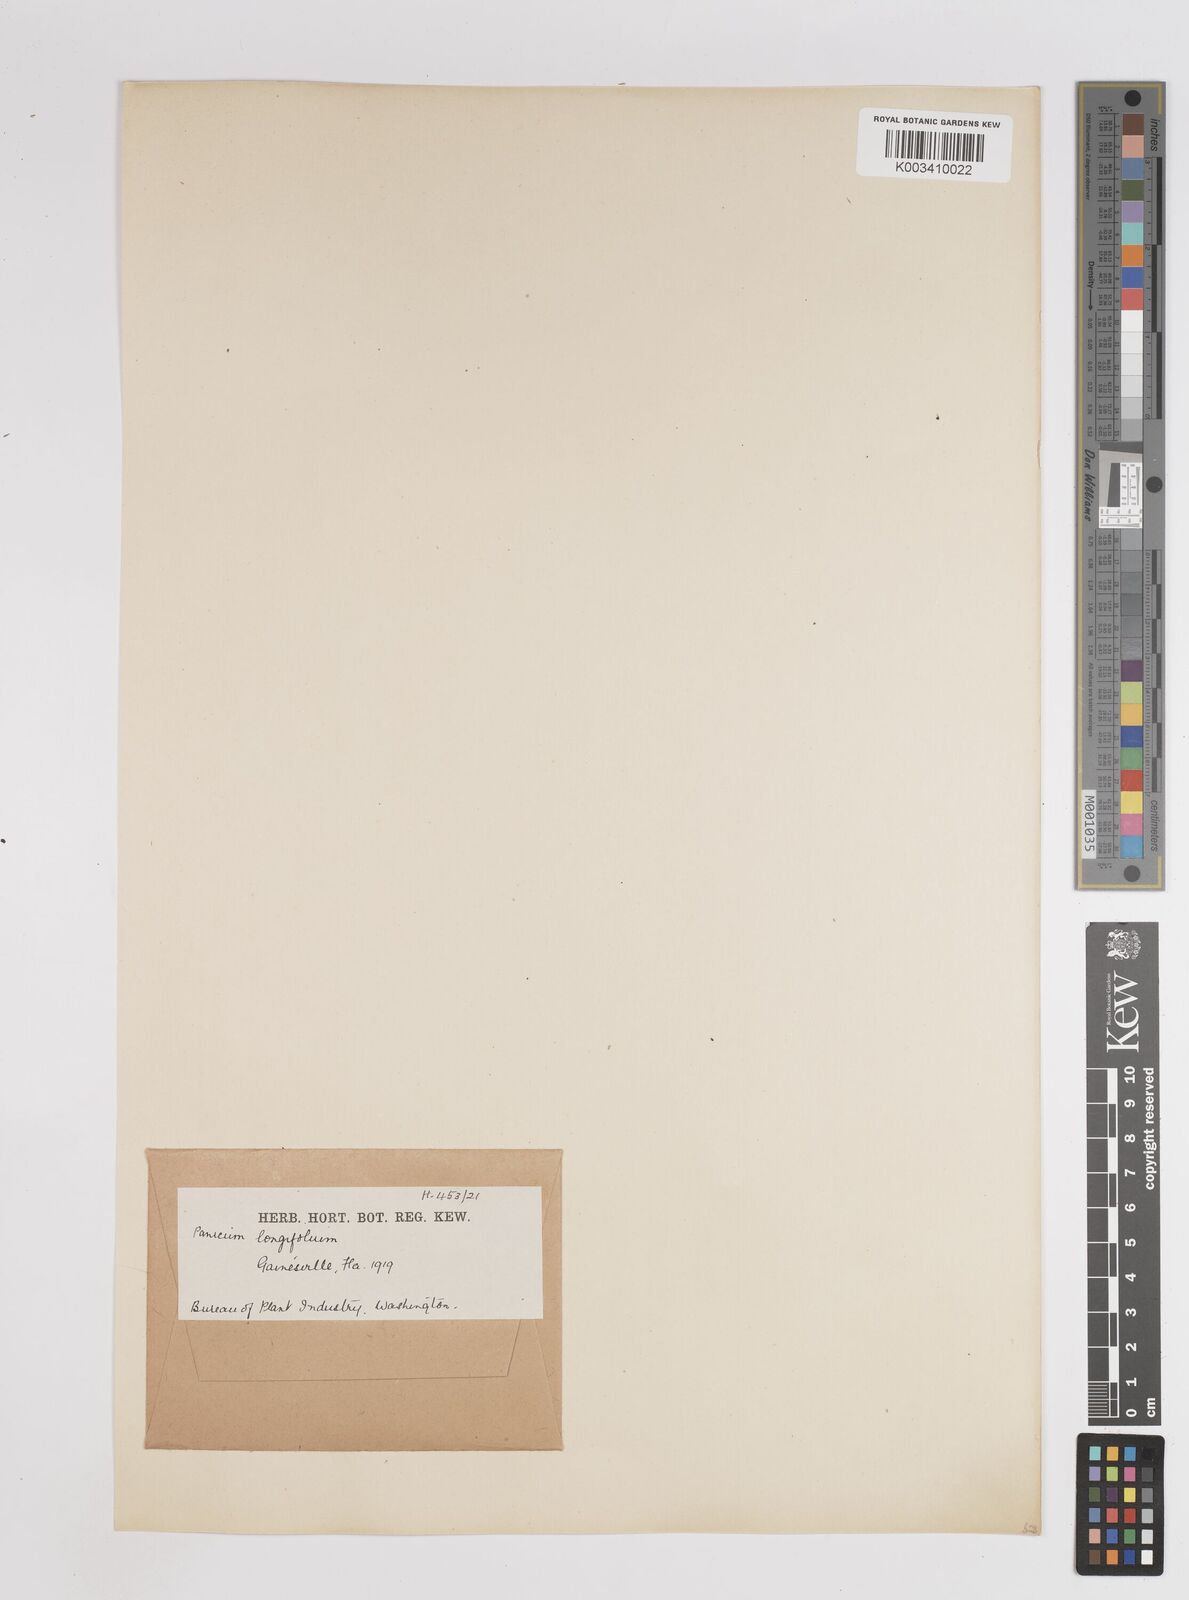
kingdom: Plantae
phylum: Tracheophyta
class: Liliopsida
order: Poales
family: Poaceae
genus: Coleataenia
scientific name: Coleataenia longifolia
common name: Long-leaved panicgrass
